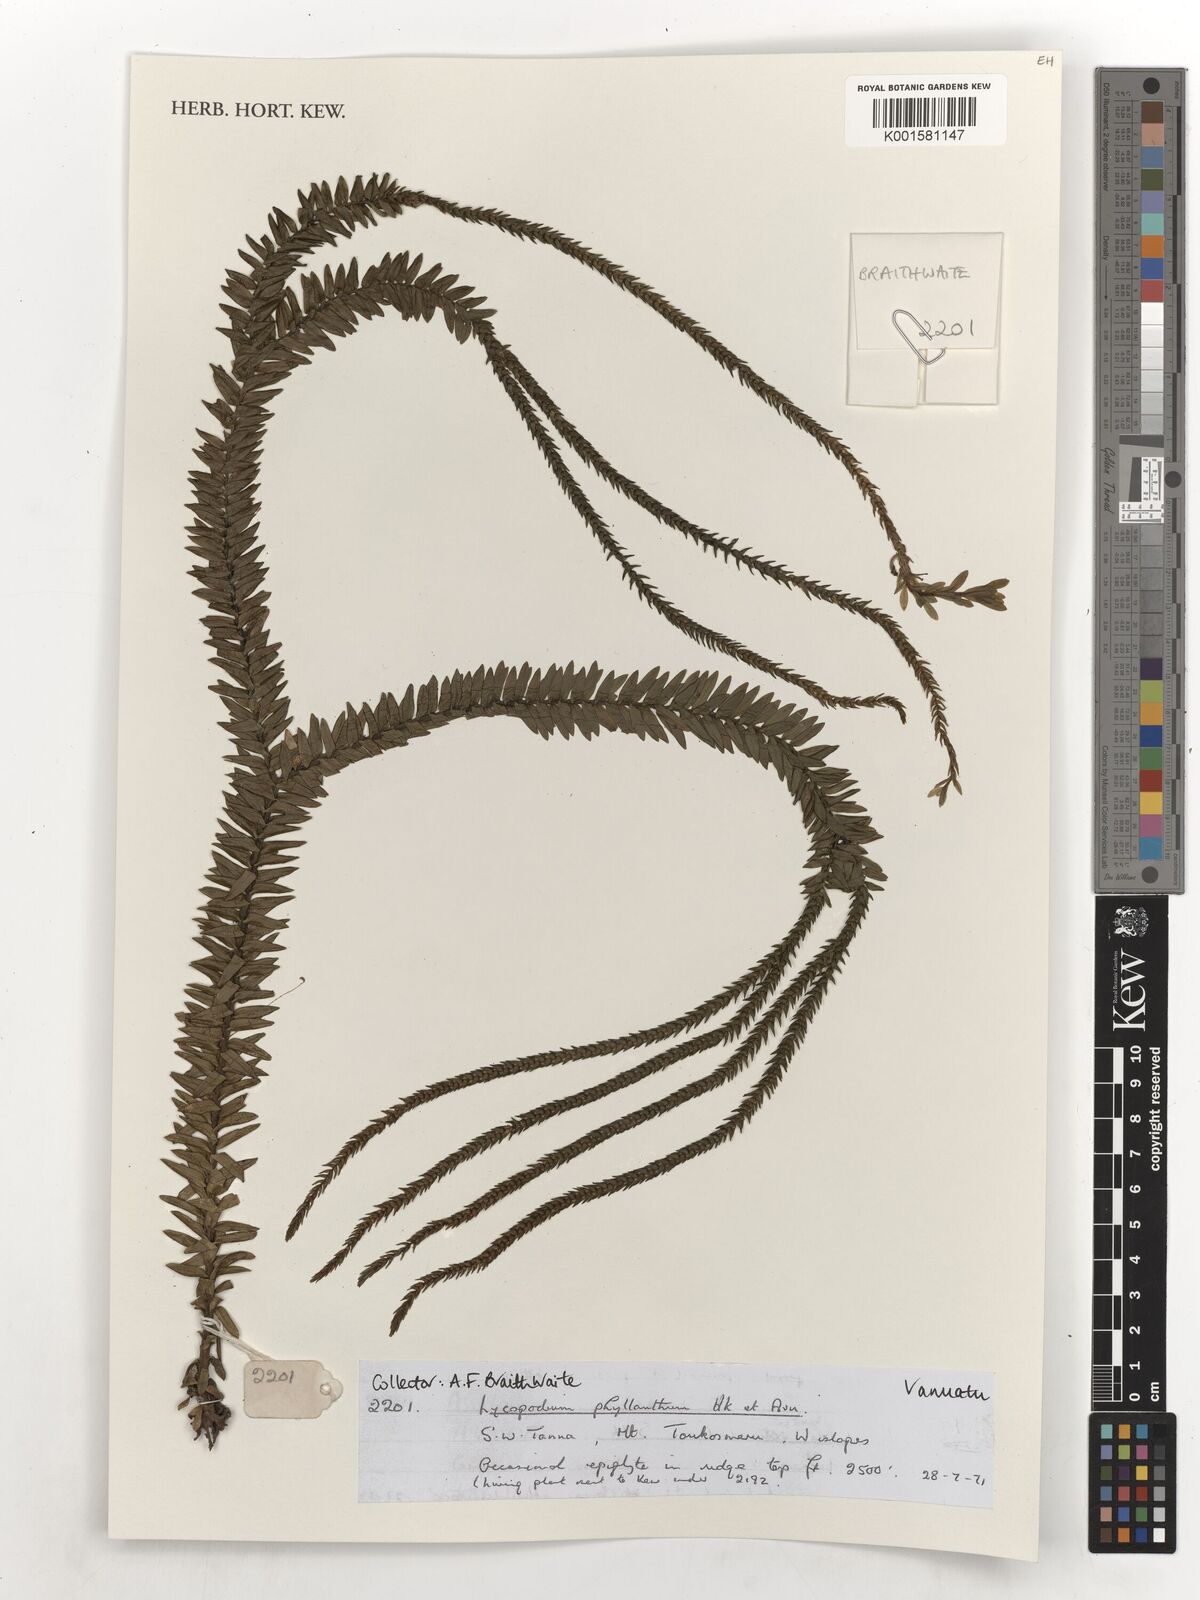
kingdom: Plantae
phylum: Tracheophyta
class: Lycopodiopsida
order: Lycopodiales
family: Lycopodiaceae
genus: Phlegmariurus
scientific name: Phlegmariurus phyllanthus
